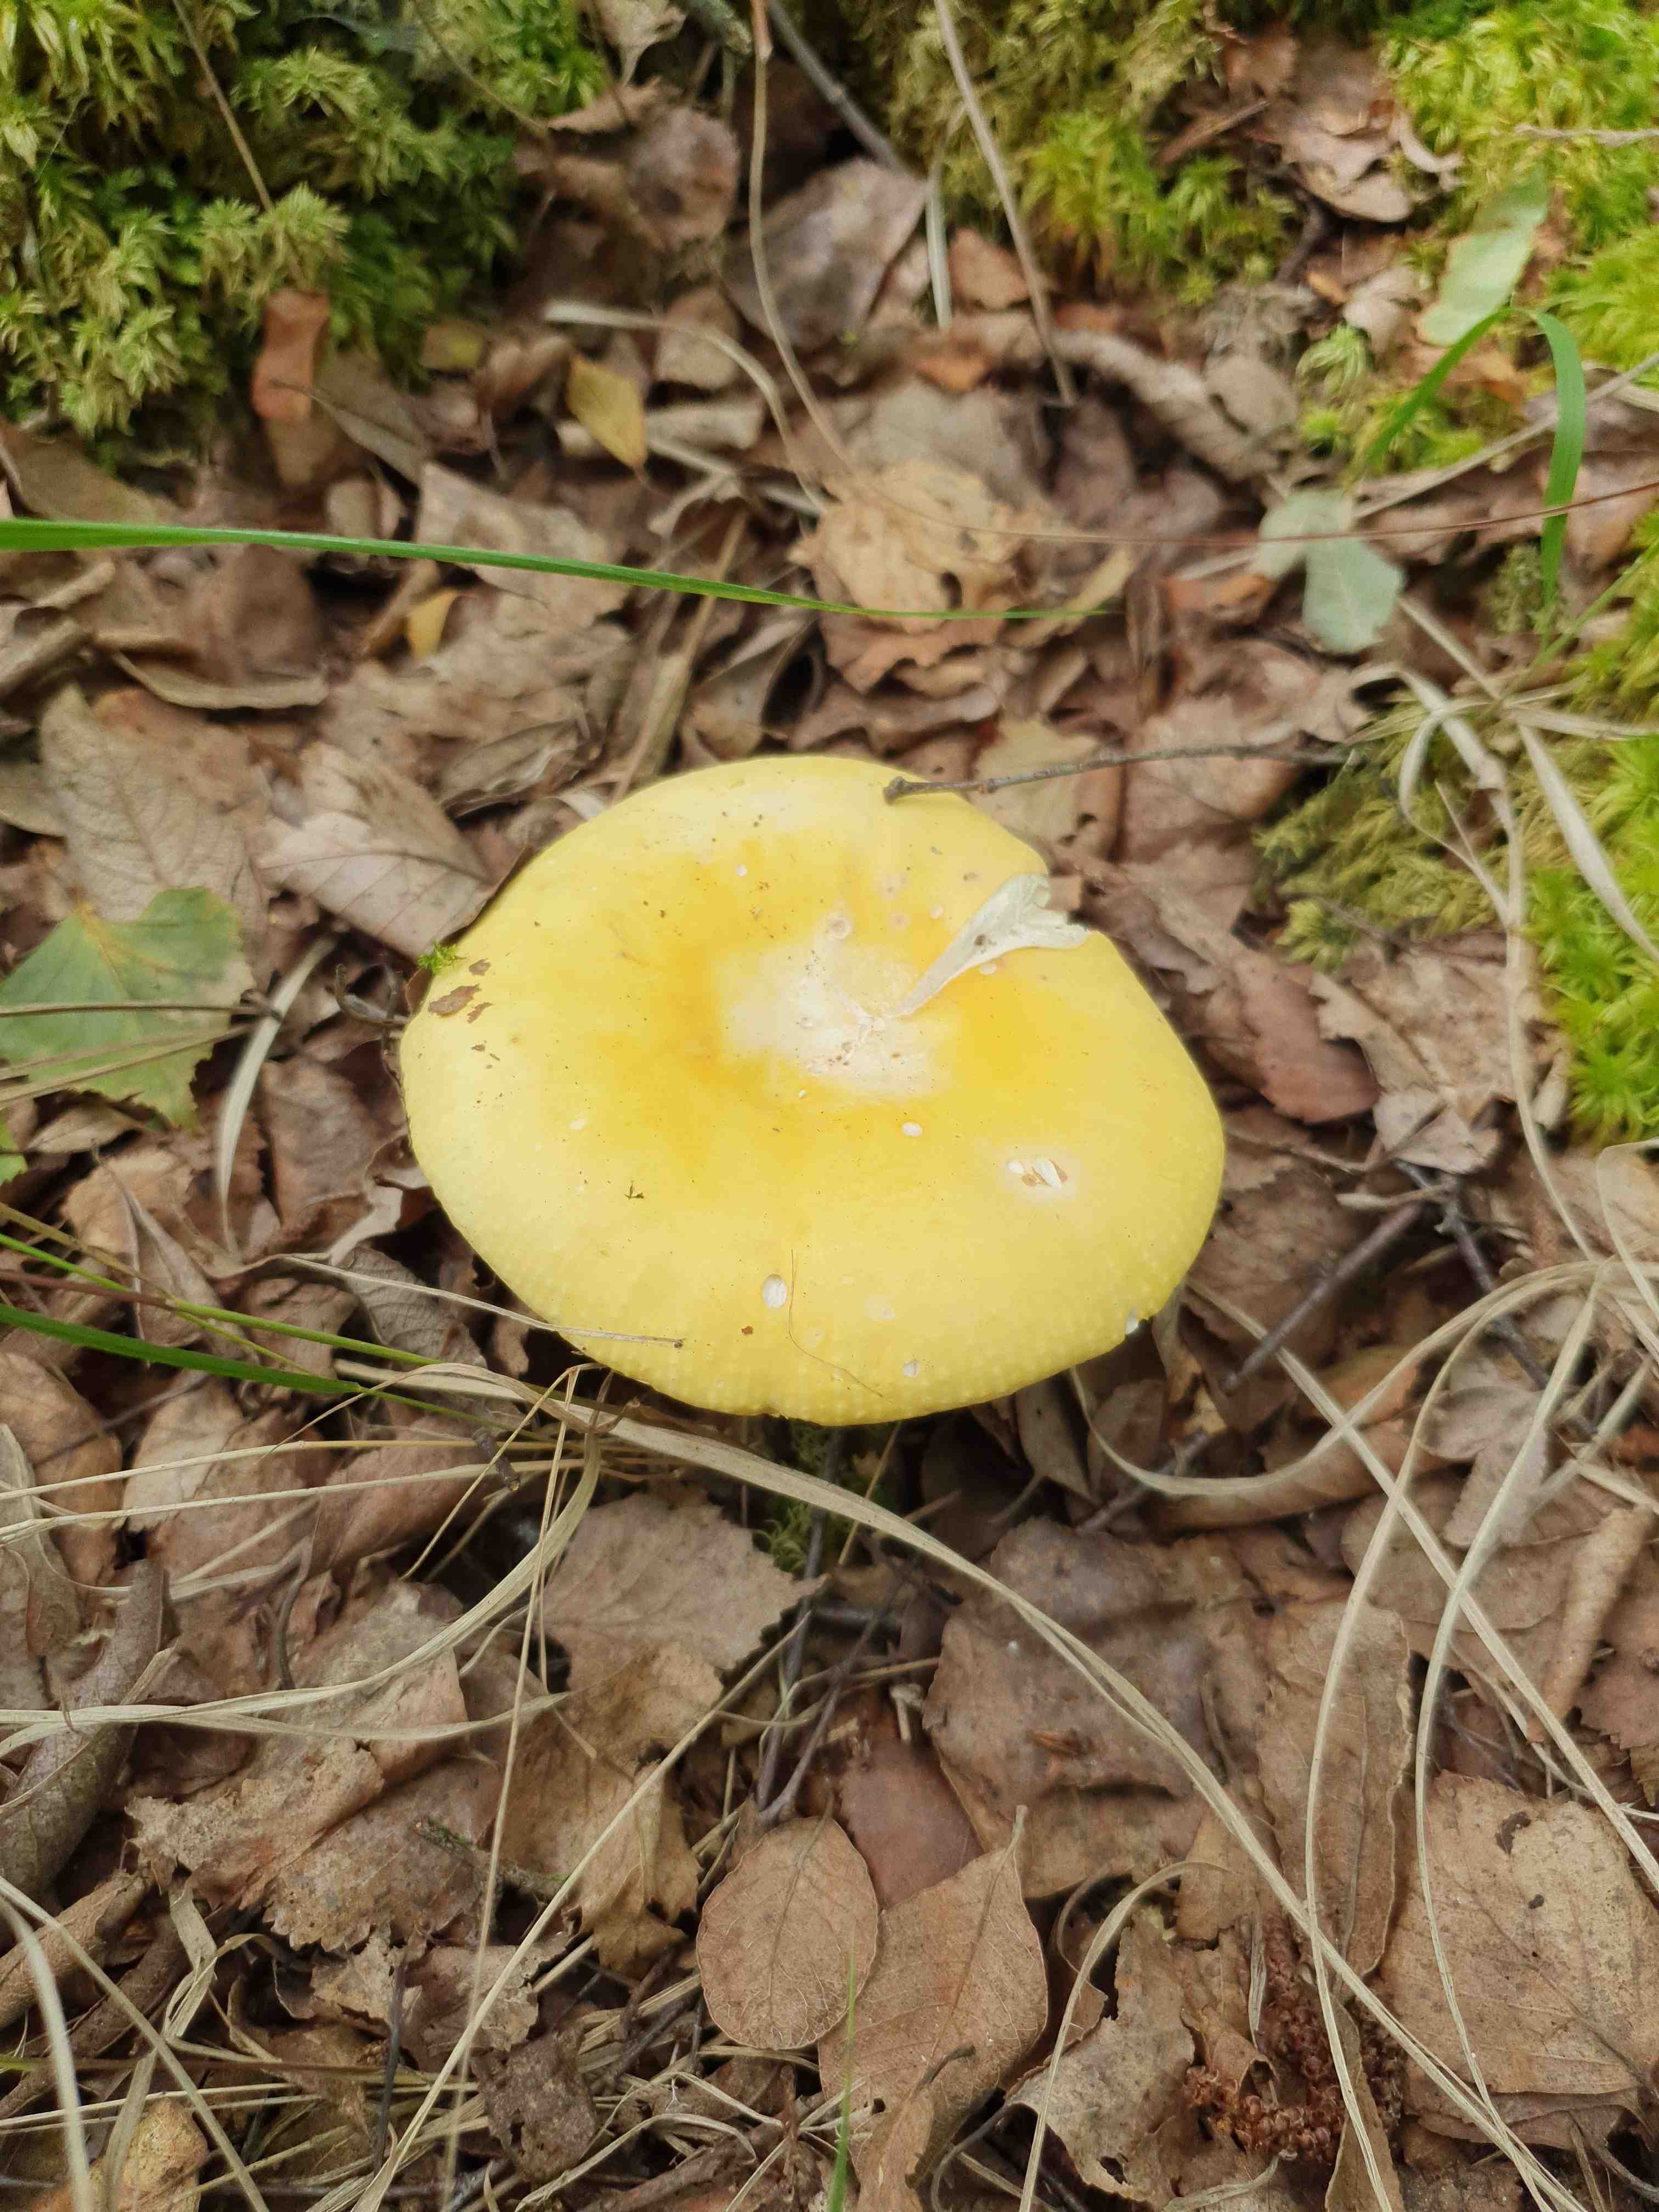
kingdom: Fungi
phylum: Basidiomycota
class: Agaricomycetes
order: Russulales
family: Russulaceae
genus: Russula
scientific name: Russula claroflava
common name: birke-skørhat
